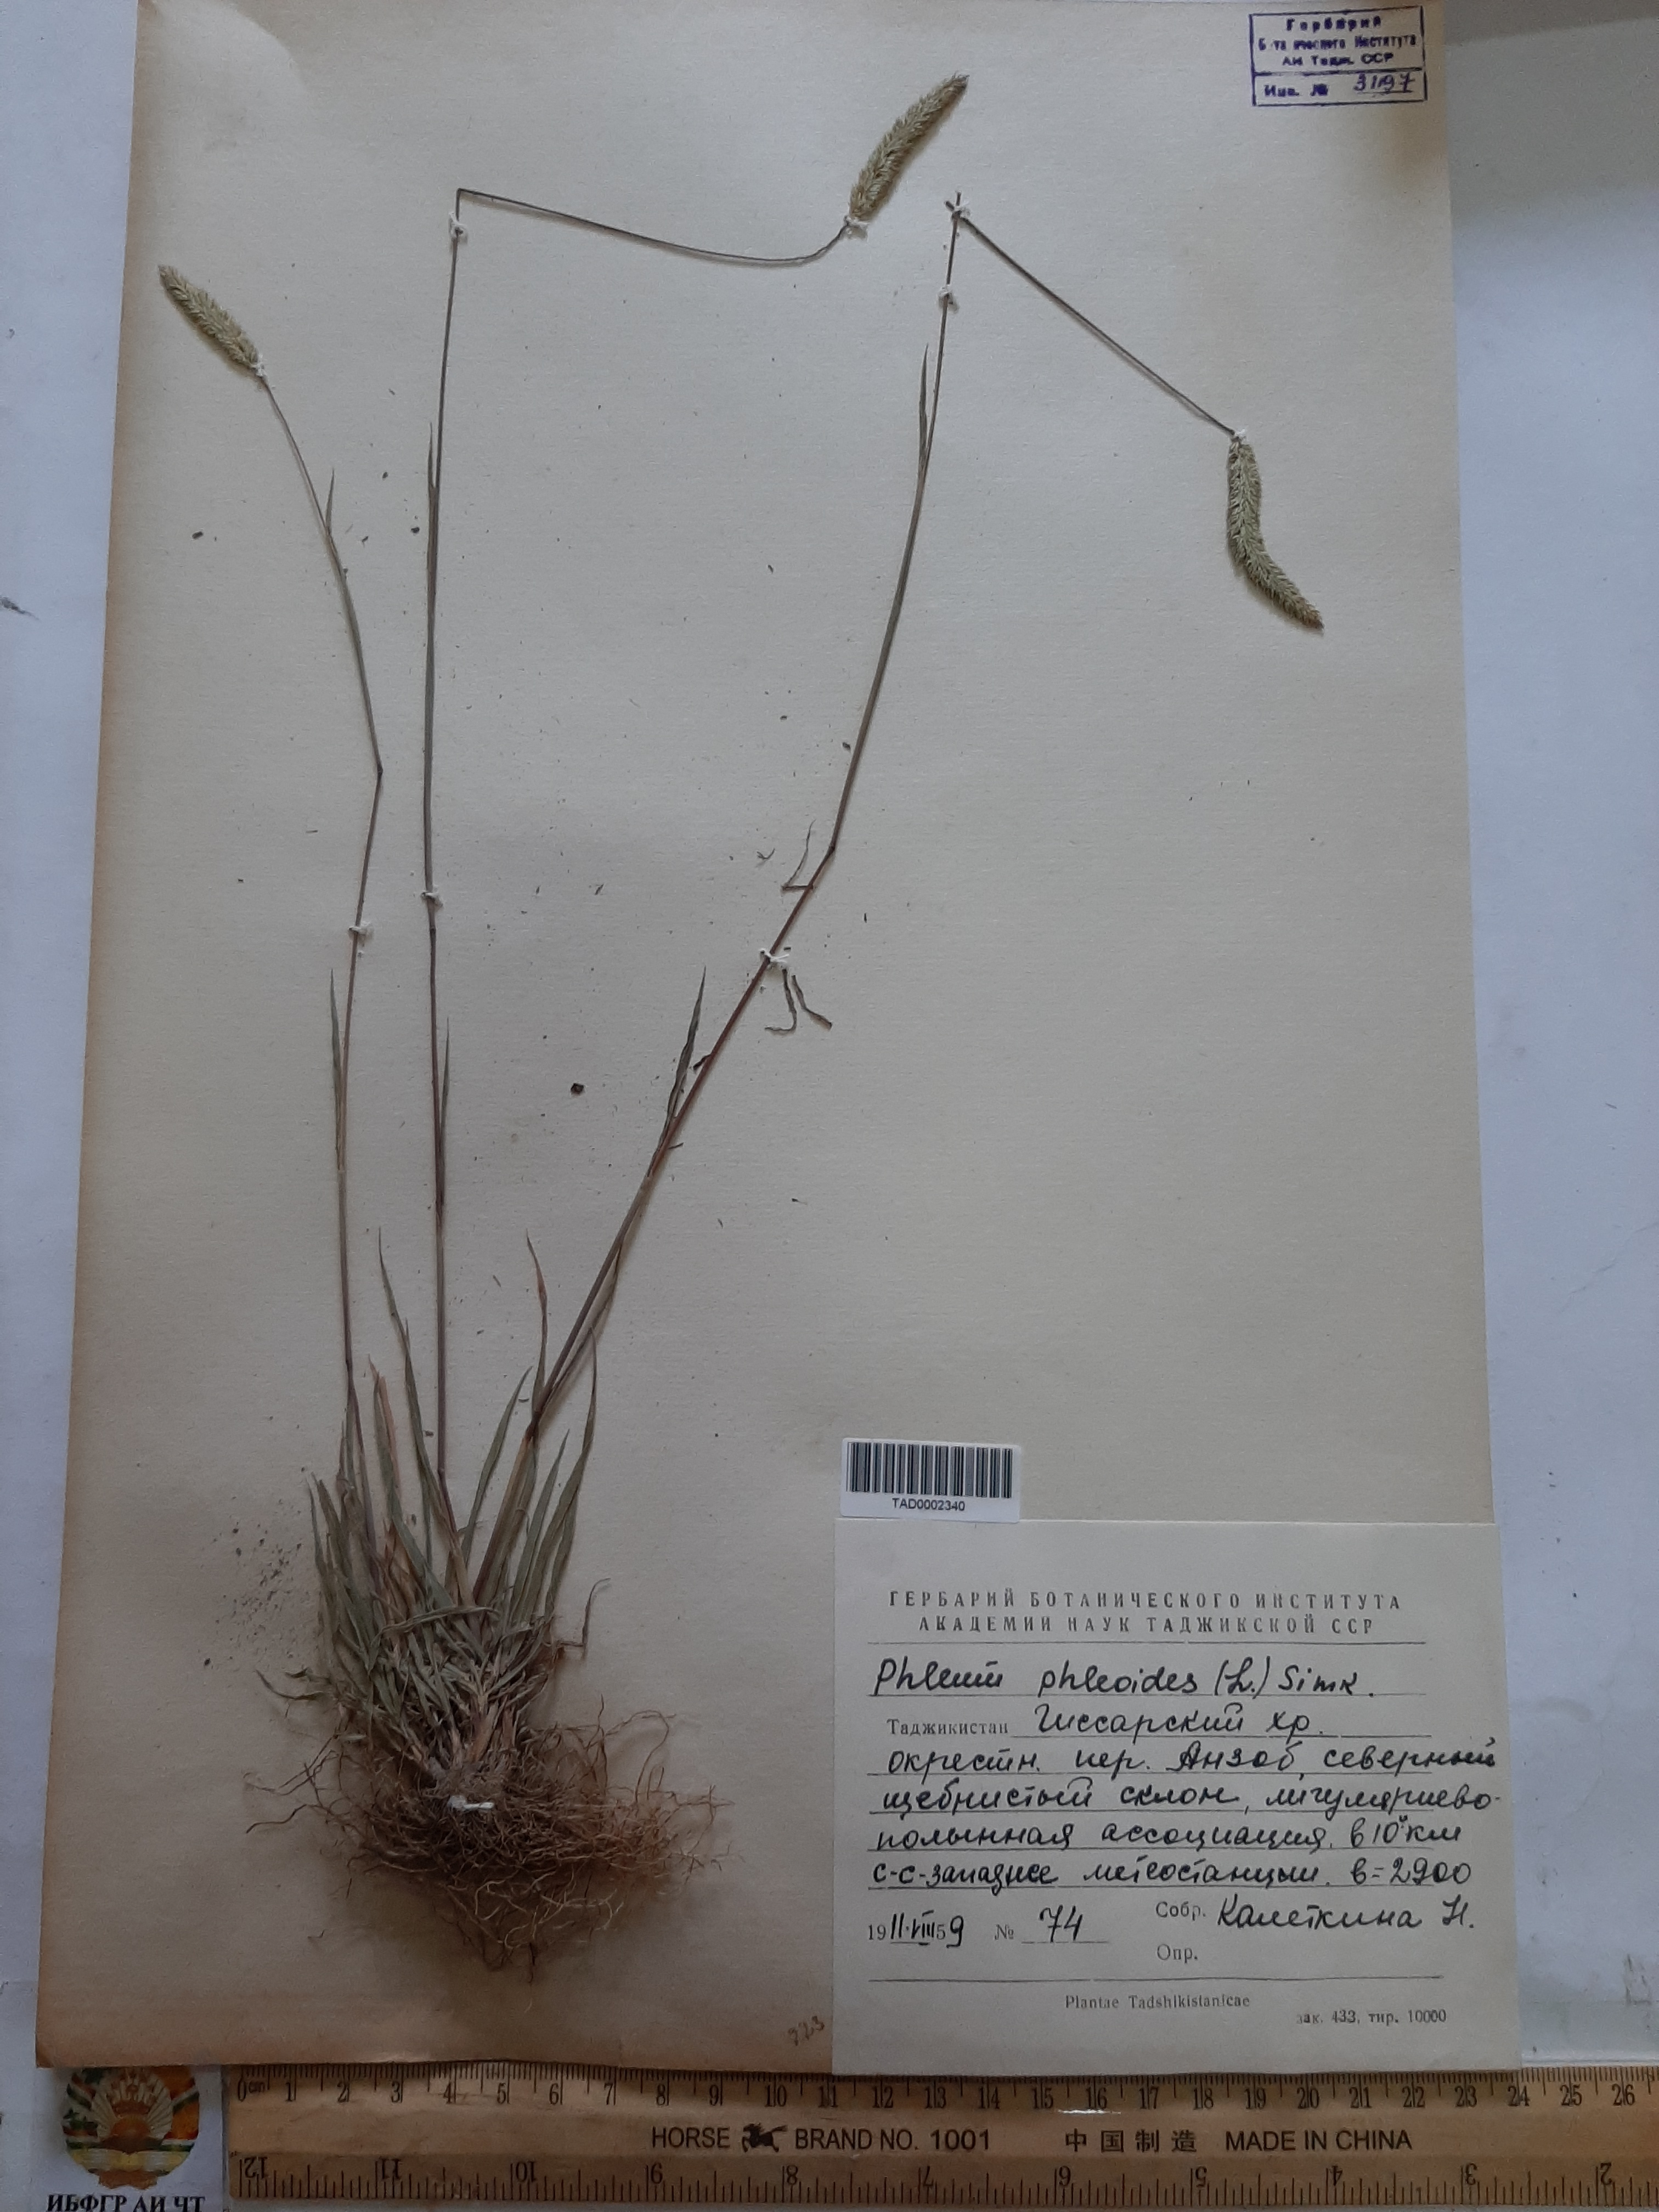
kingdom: Plantae
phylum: Tracheophyta
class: Liliopsida
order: Poales
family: Poaceae
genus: Phleum
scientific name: Phleum phleoides
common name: Purple-stem cat's-tail
